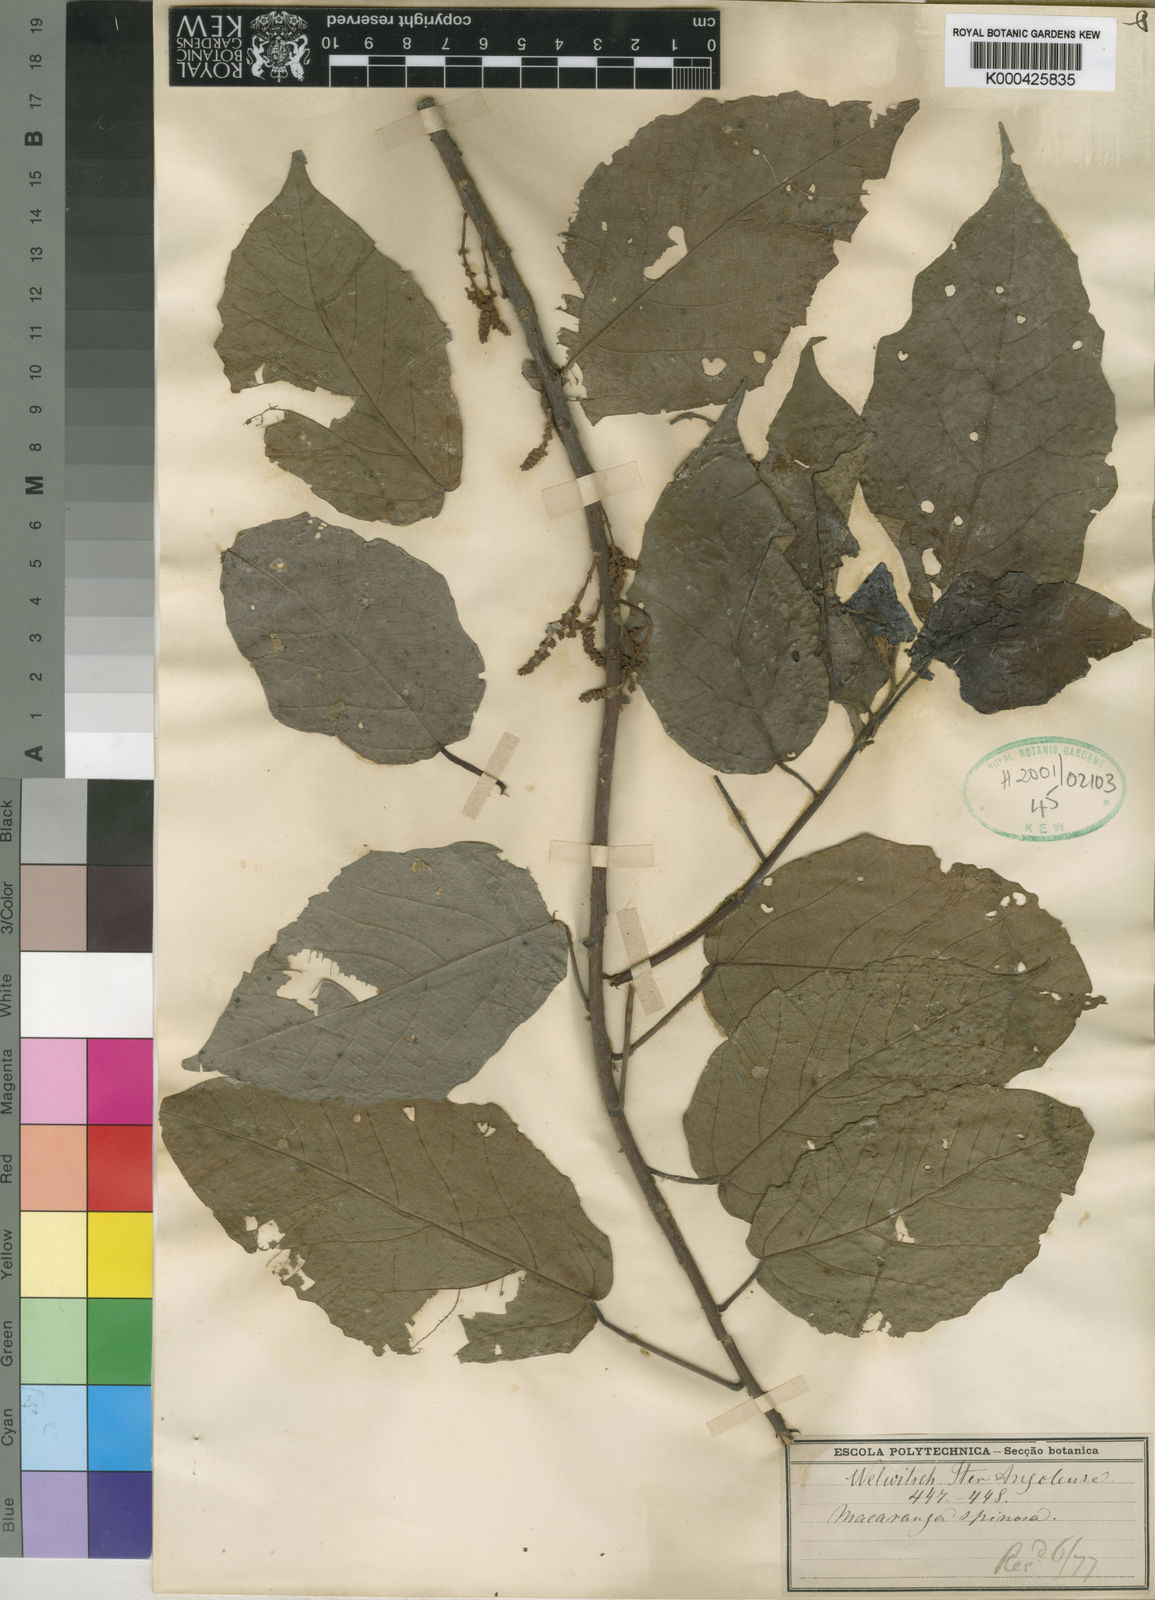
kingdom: Plantae
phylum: Tracheophyta
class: Magnoliopsida
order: Malpighiales
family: Euphorbiaceae
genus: Macaranga
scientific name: Macaranga
